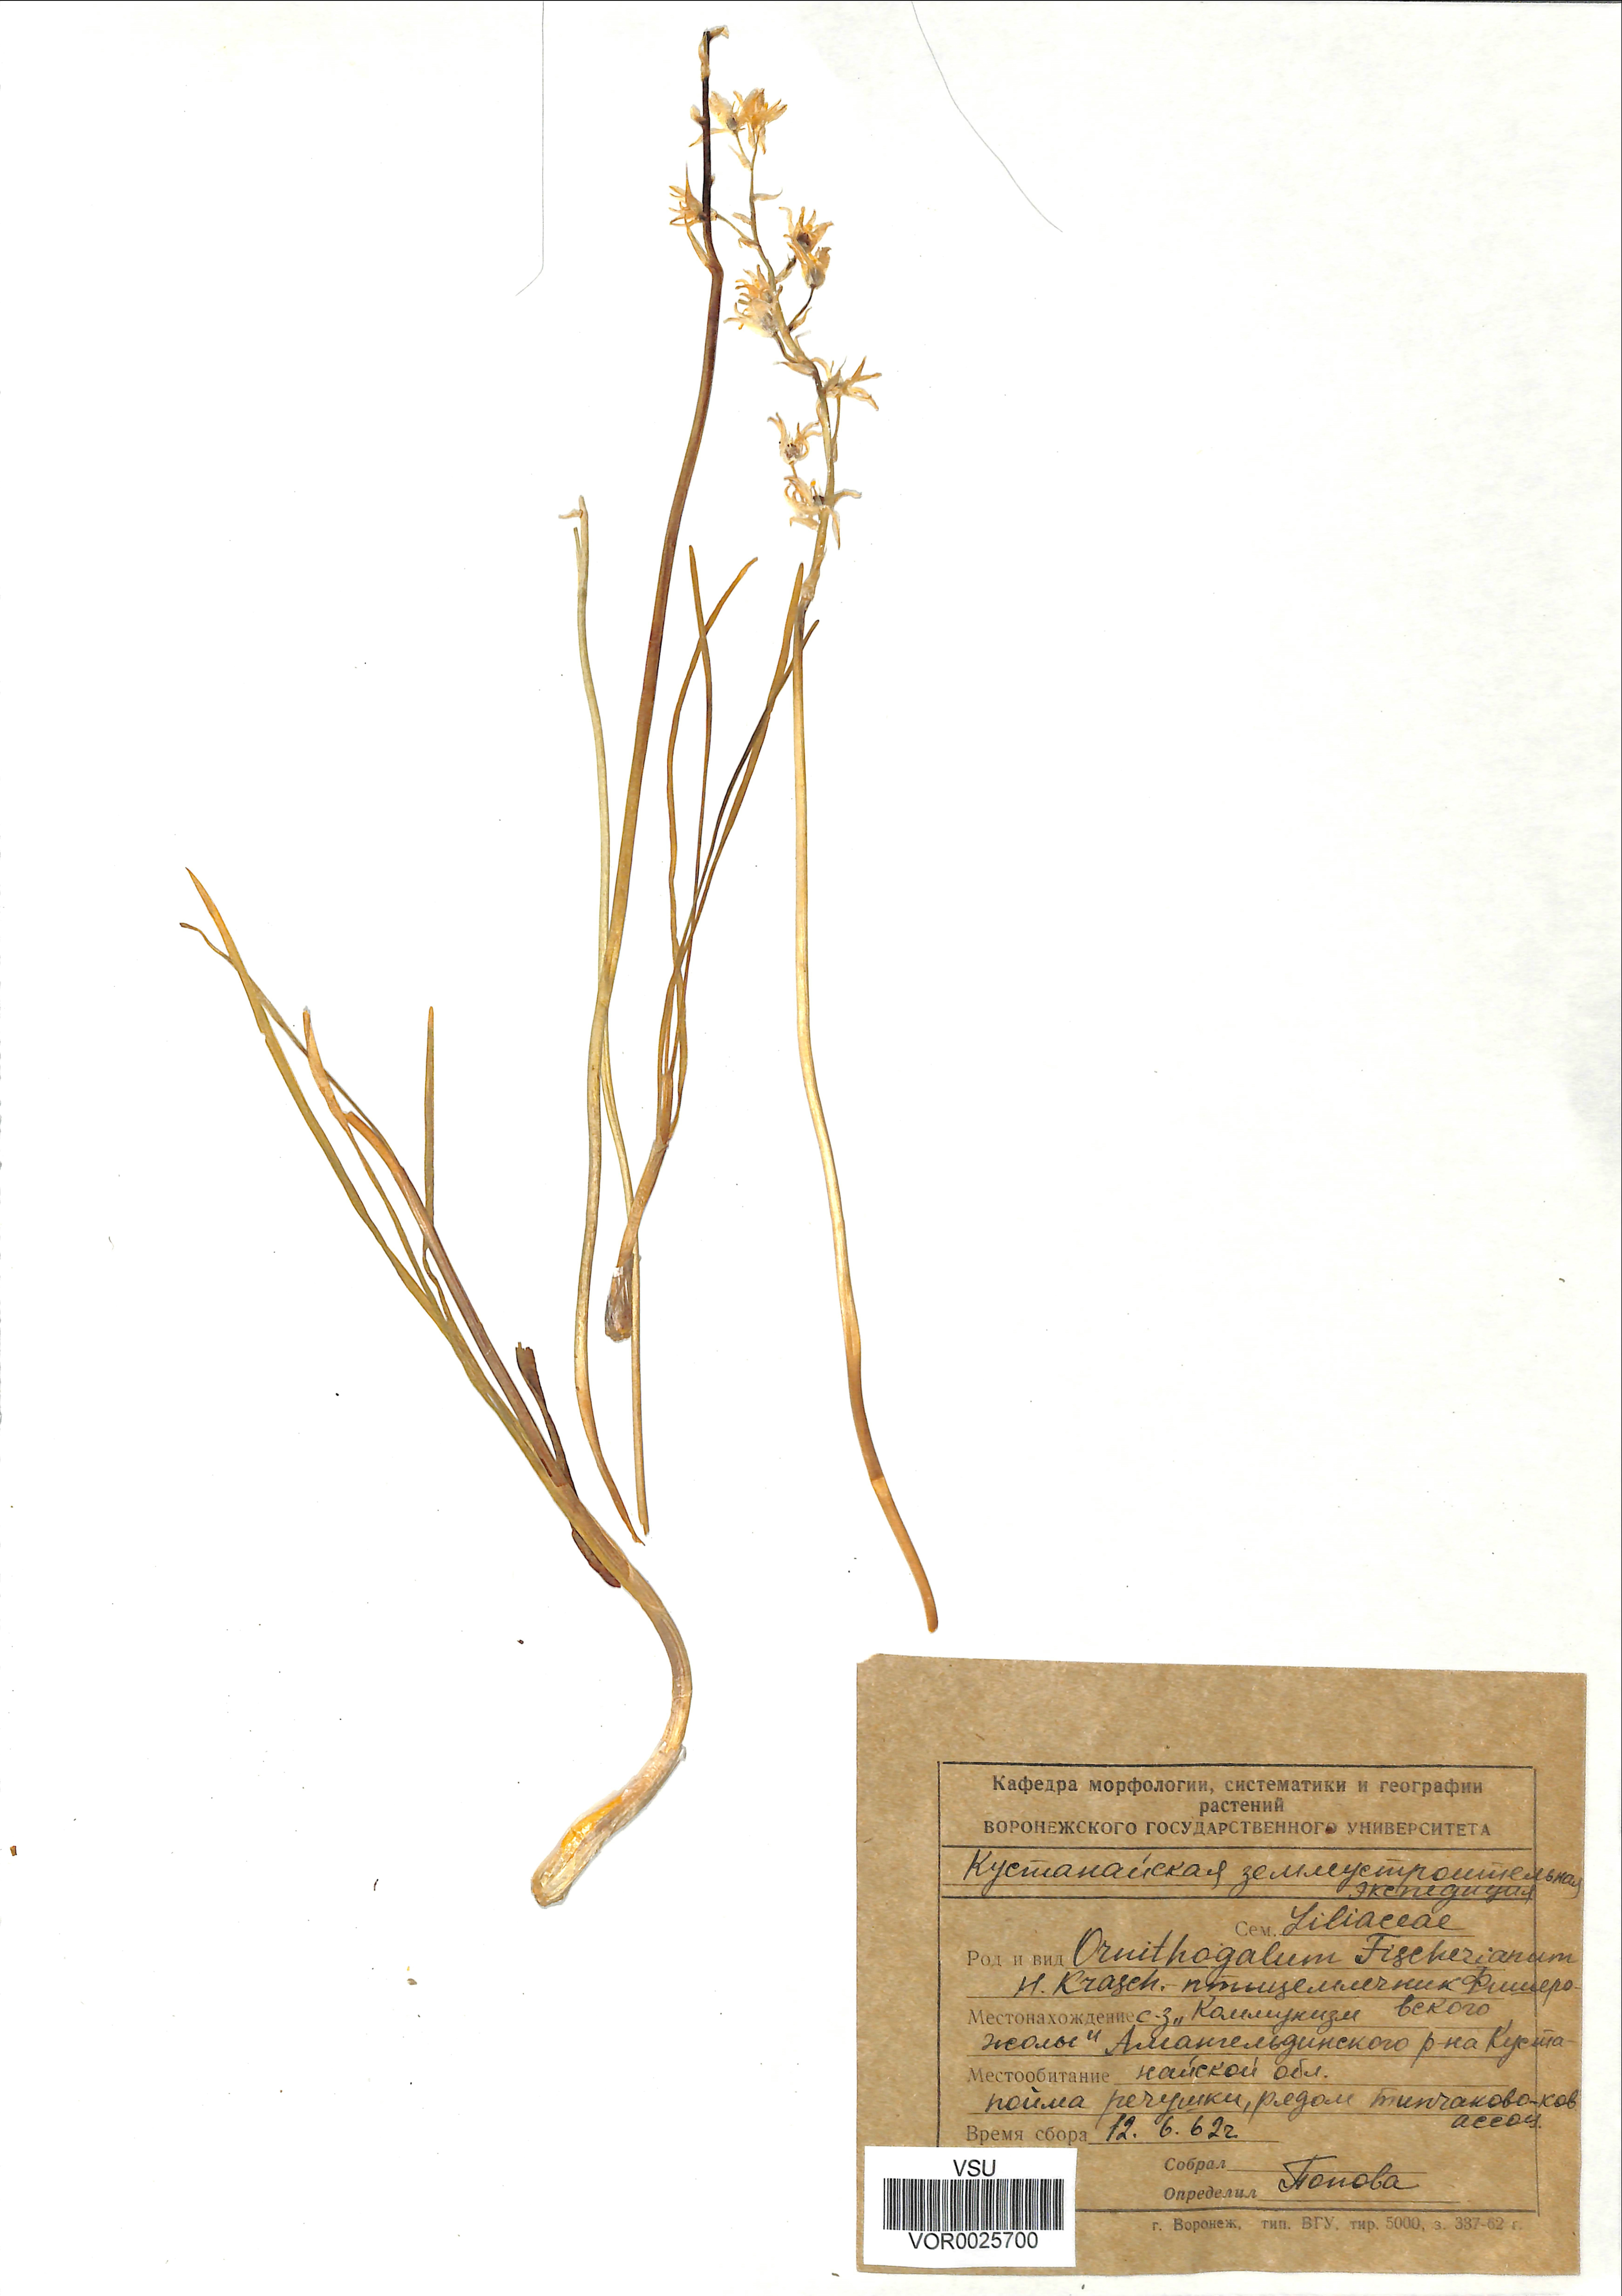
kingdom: Plantae
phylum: Tracheophyta
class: Liliopsida
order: Asparagales
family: Asparagaceae
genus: Ornithogalum
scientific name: Ornithogalum fischerianum
